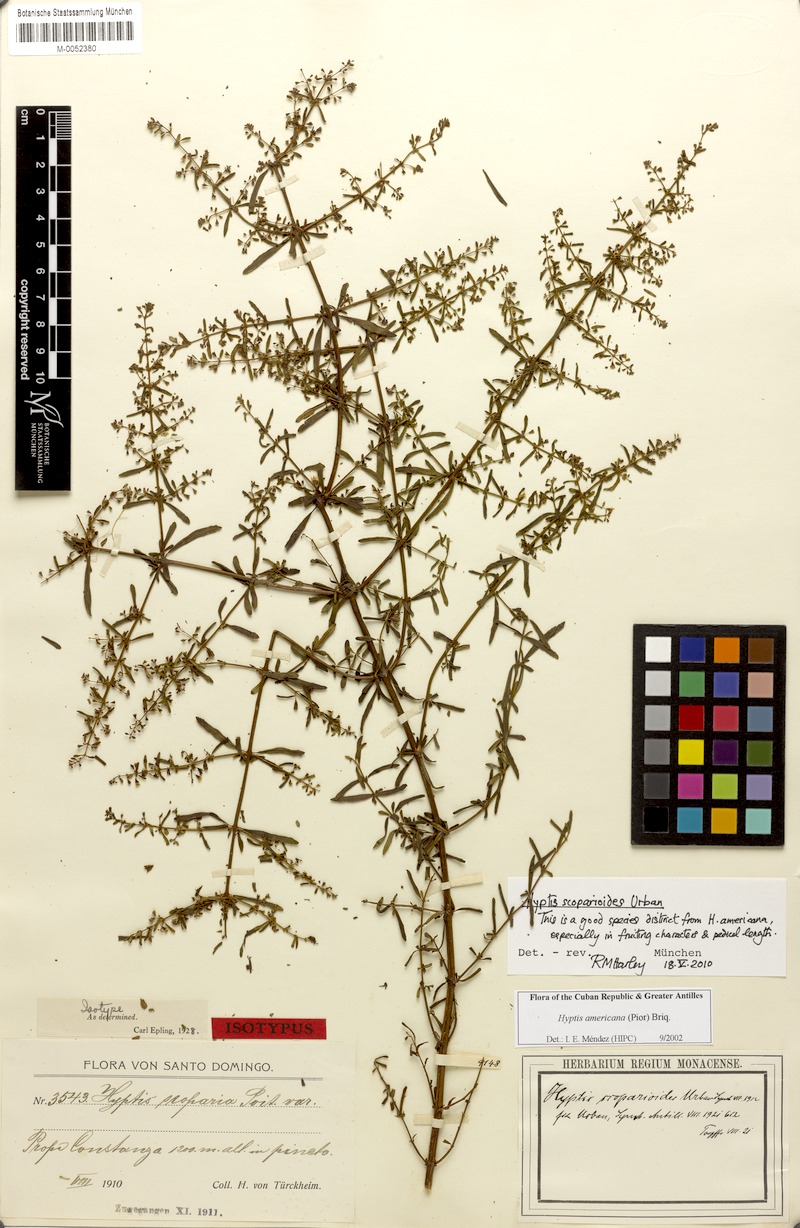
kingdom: Plantae
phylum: Tracheophyta
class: Magnoliopsida
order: Lamiales
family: Lamiaceae
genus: Condea
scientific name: Condea scoparioides
